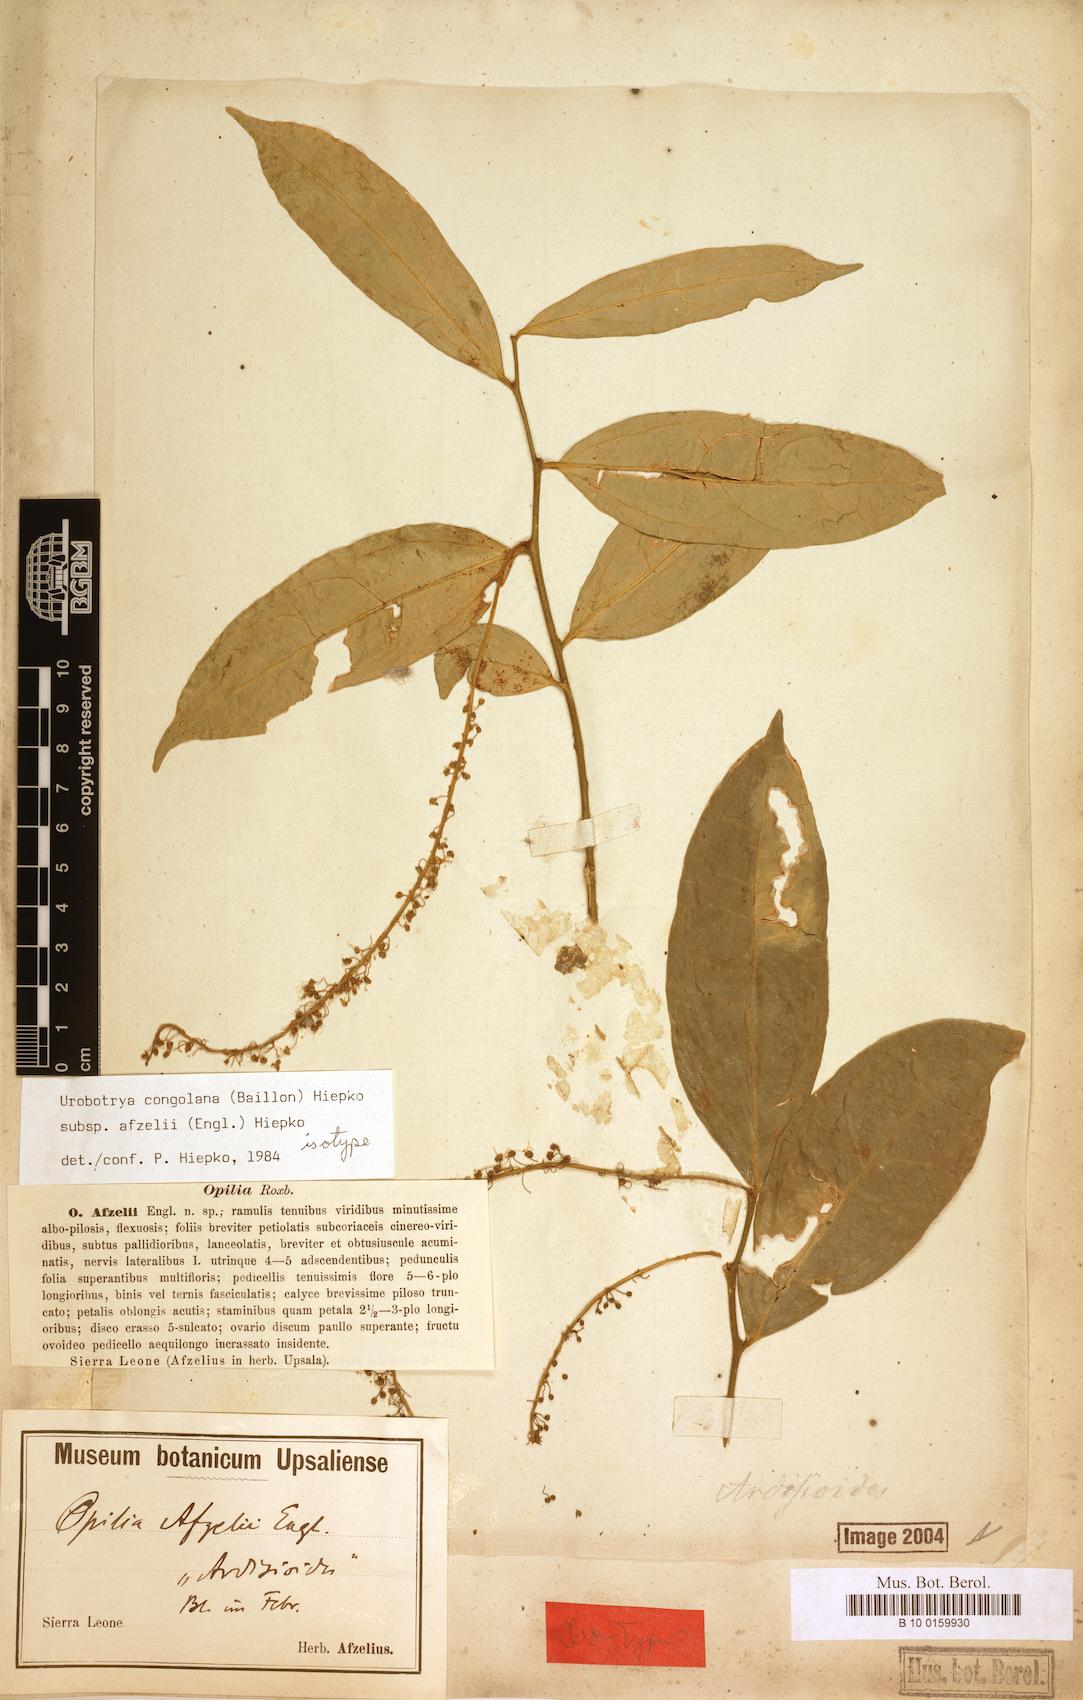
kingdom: Plantae
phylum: Tracheophyta
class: Magnoliopsida
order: Santalales
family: Opiliaceae
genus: Urobotrya
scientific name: Urobotrya congolana
